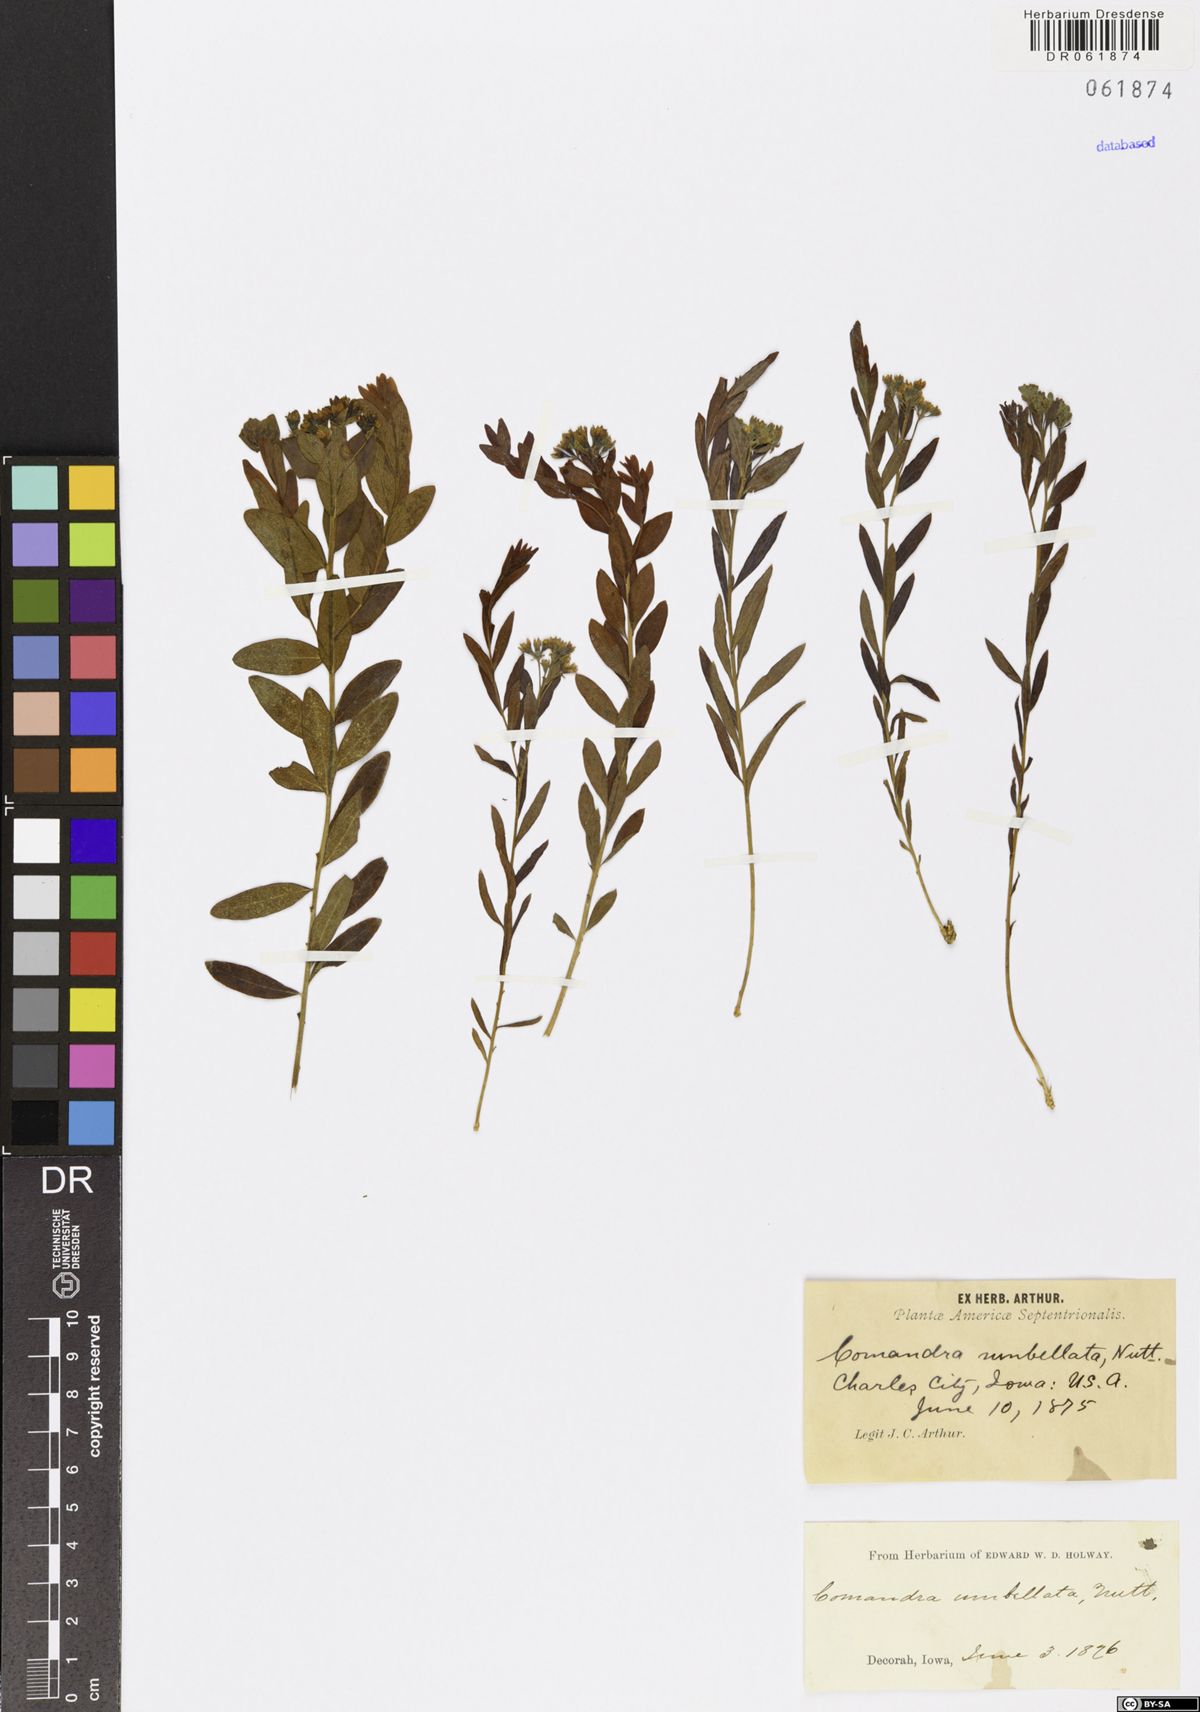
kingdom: Plantae
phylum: Tracheophyta
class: Magnoliopsida
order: Santalales
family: Comandraceae
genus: Comandra
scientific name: Comandra umbellata
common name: Bastard toadflax
